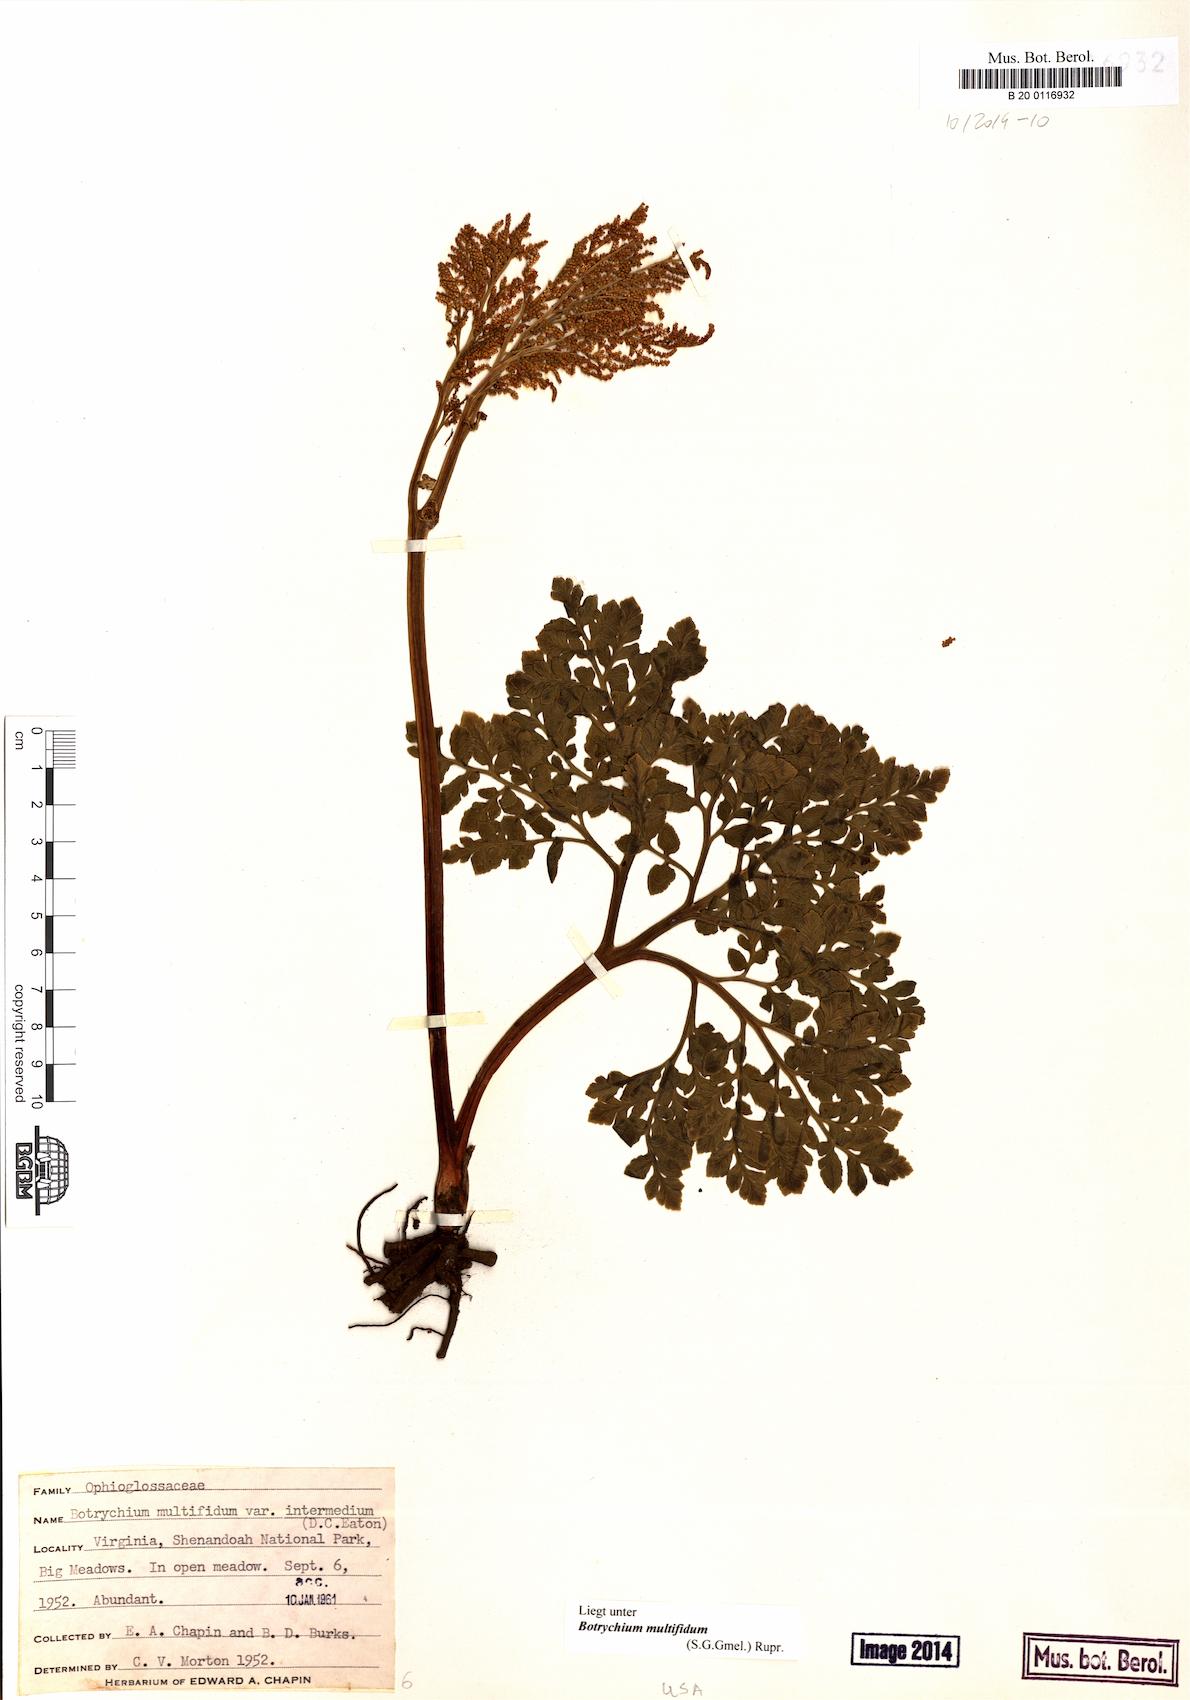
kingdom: Plantae
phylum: Tracheophyta
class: Polypodiopsida
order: Ophioglossales
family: Ophioglossaceae
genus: Sceptridium
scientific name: Sceptridium multifidum
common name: Leathery grape fern
